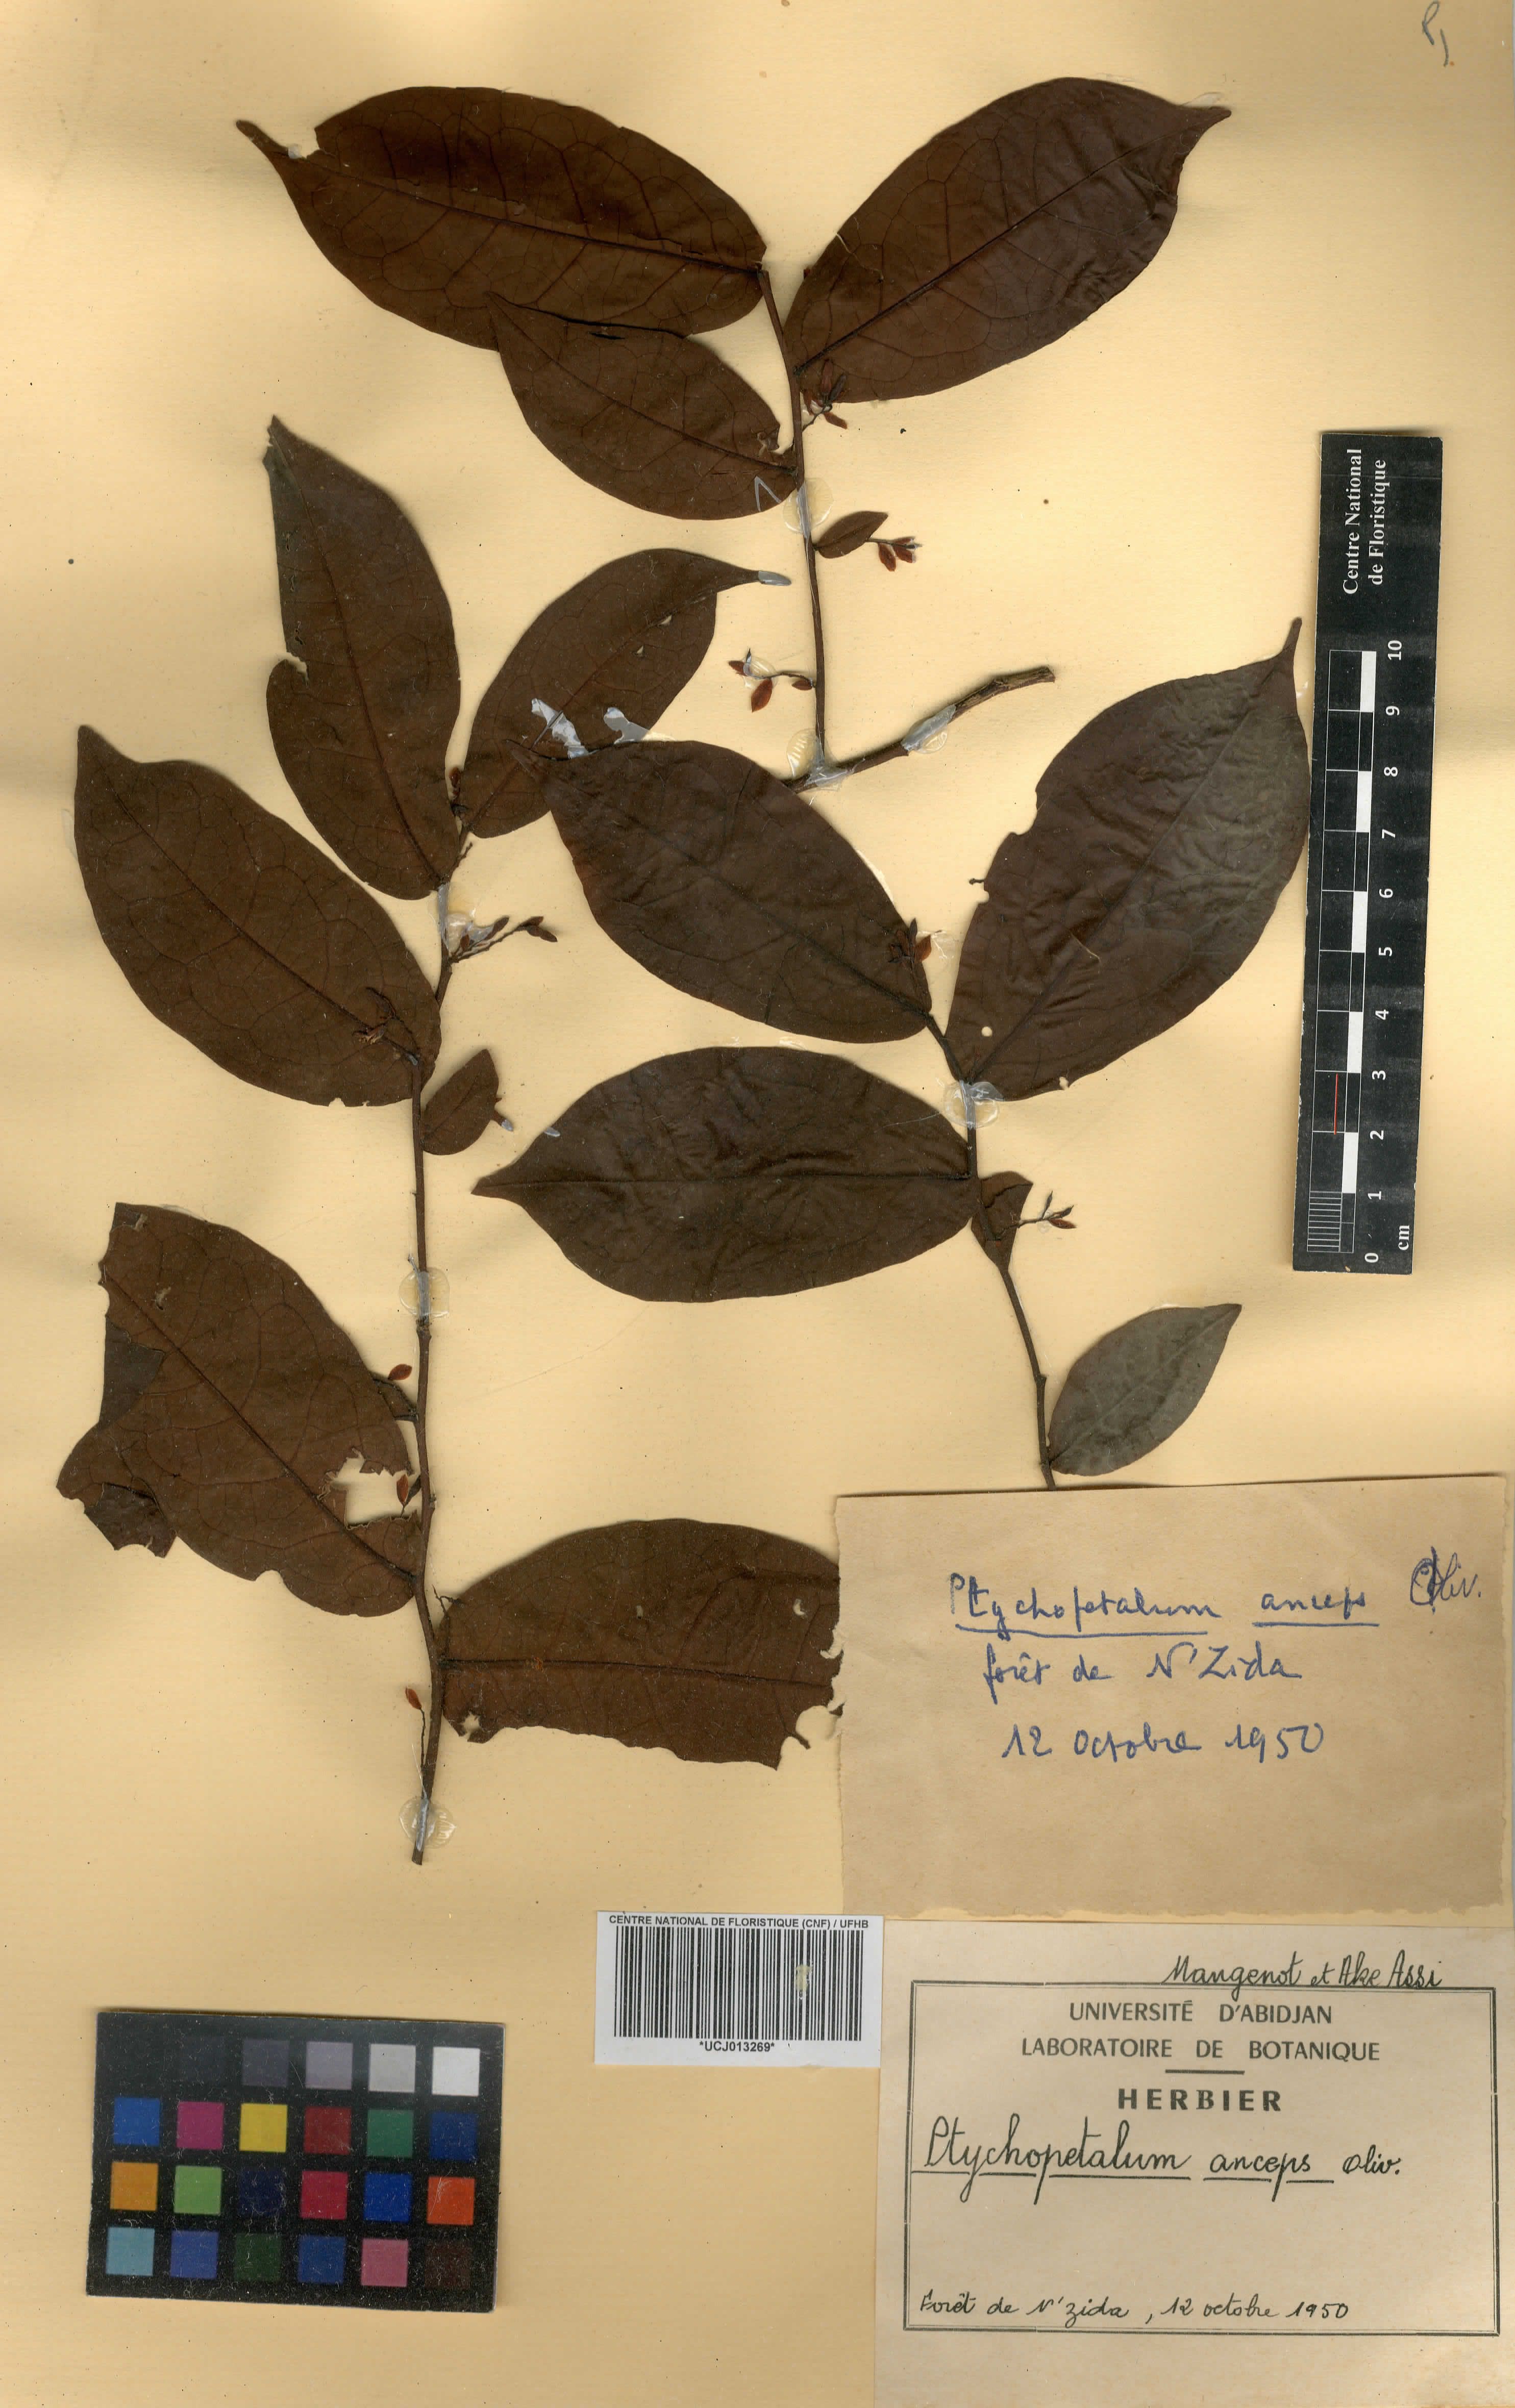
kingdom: Plantae
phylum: Tracheophyta
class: Magnoliopsida
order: Santalales
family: Olacaceae
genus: Ptychopetalum
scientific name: Ptychopetalum anceps
